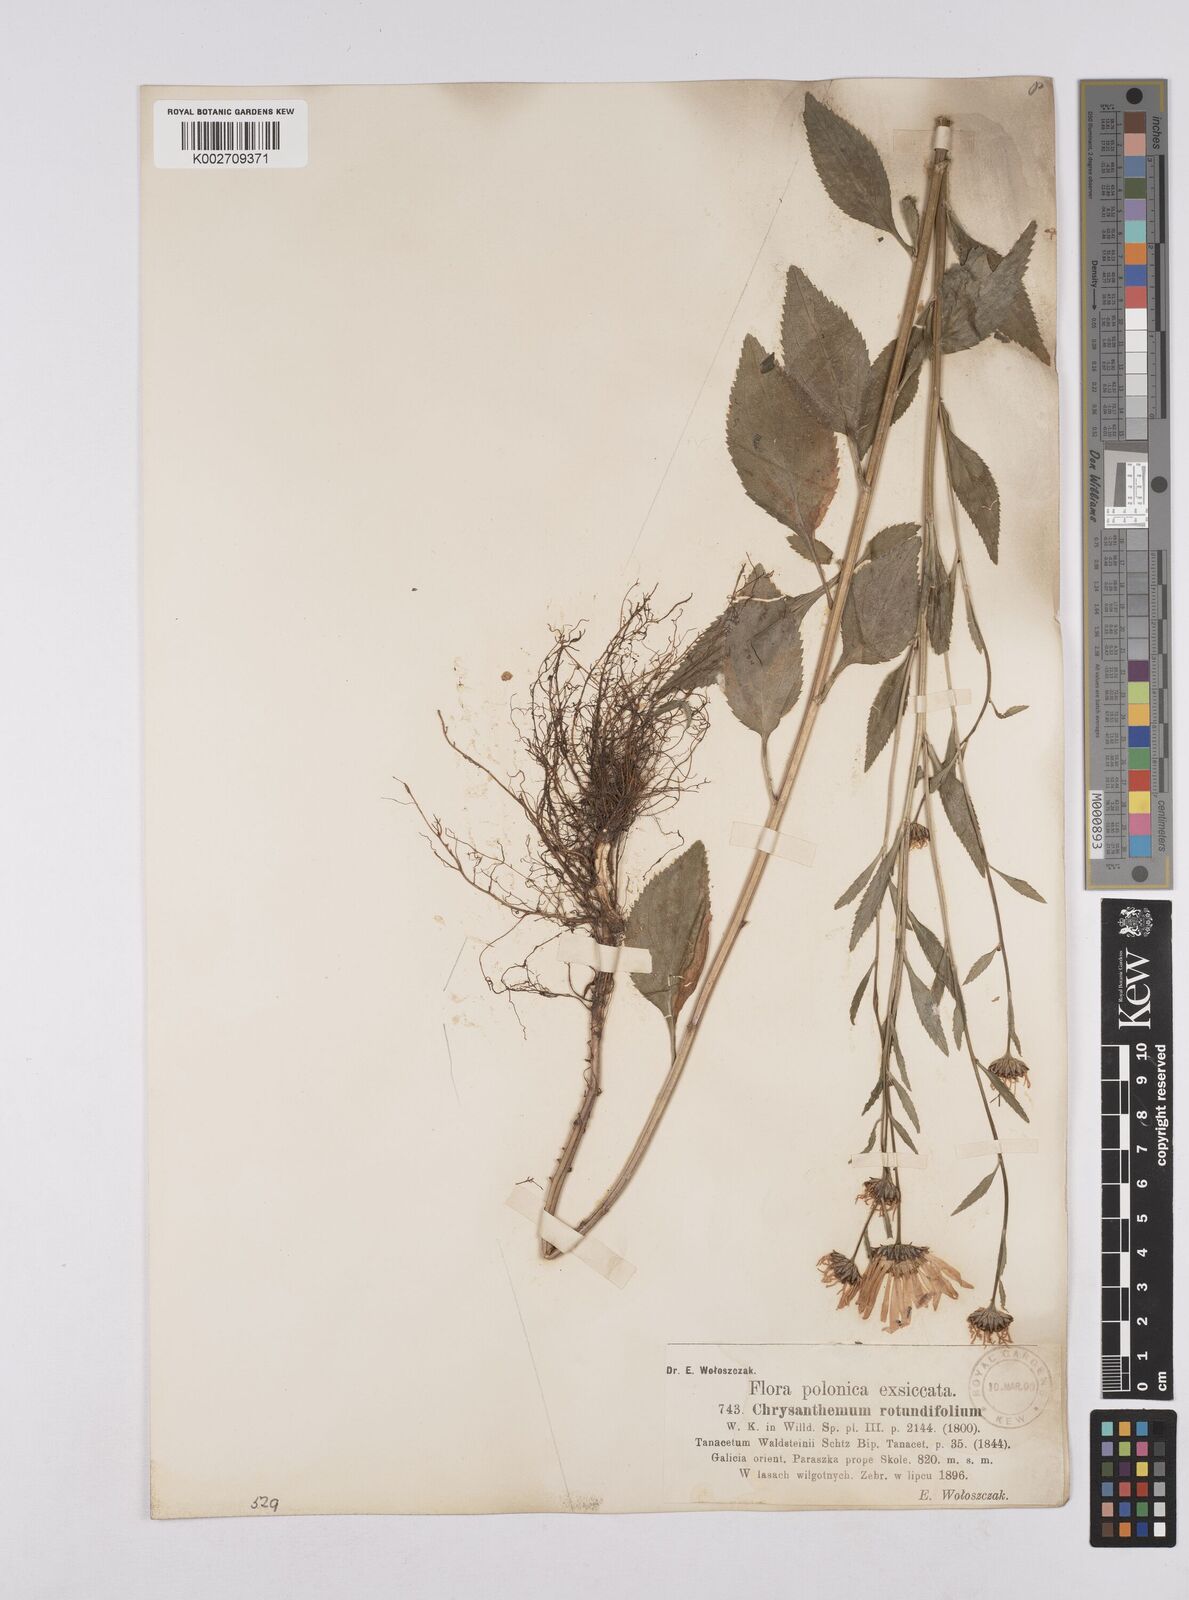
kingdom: Plantae
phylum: Tracheophyta
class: Magnoliopsida
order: Asterales
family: Asteraceae
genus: Leucanthemum
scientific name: Leucanthemum rotundifolium
